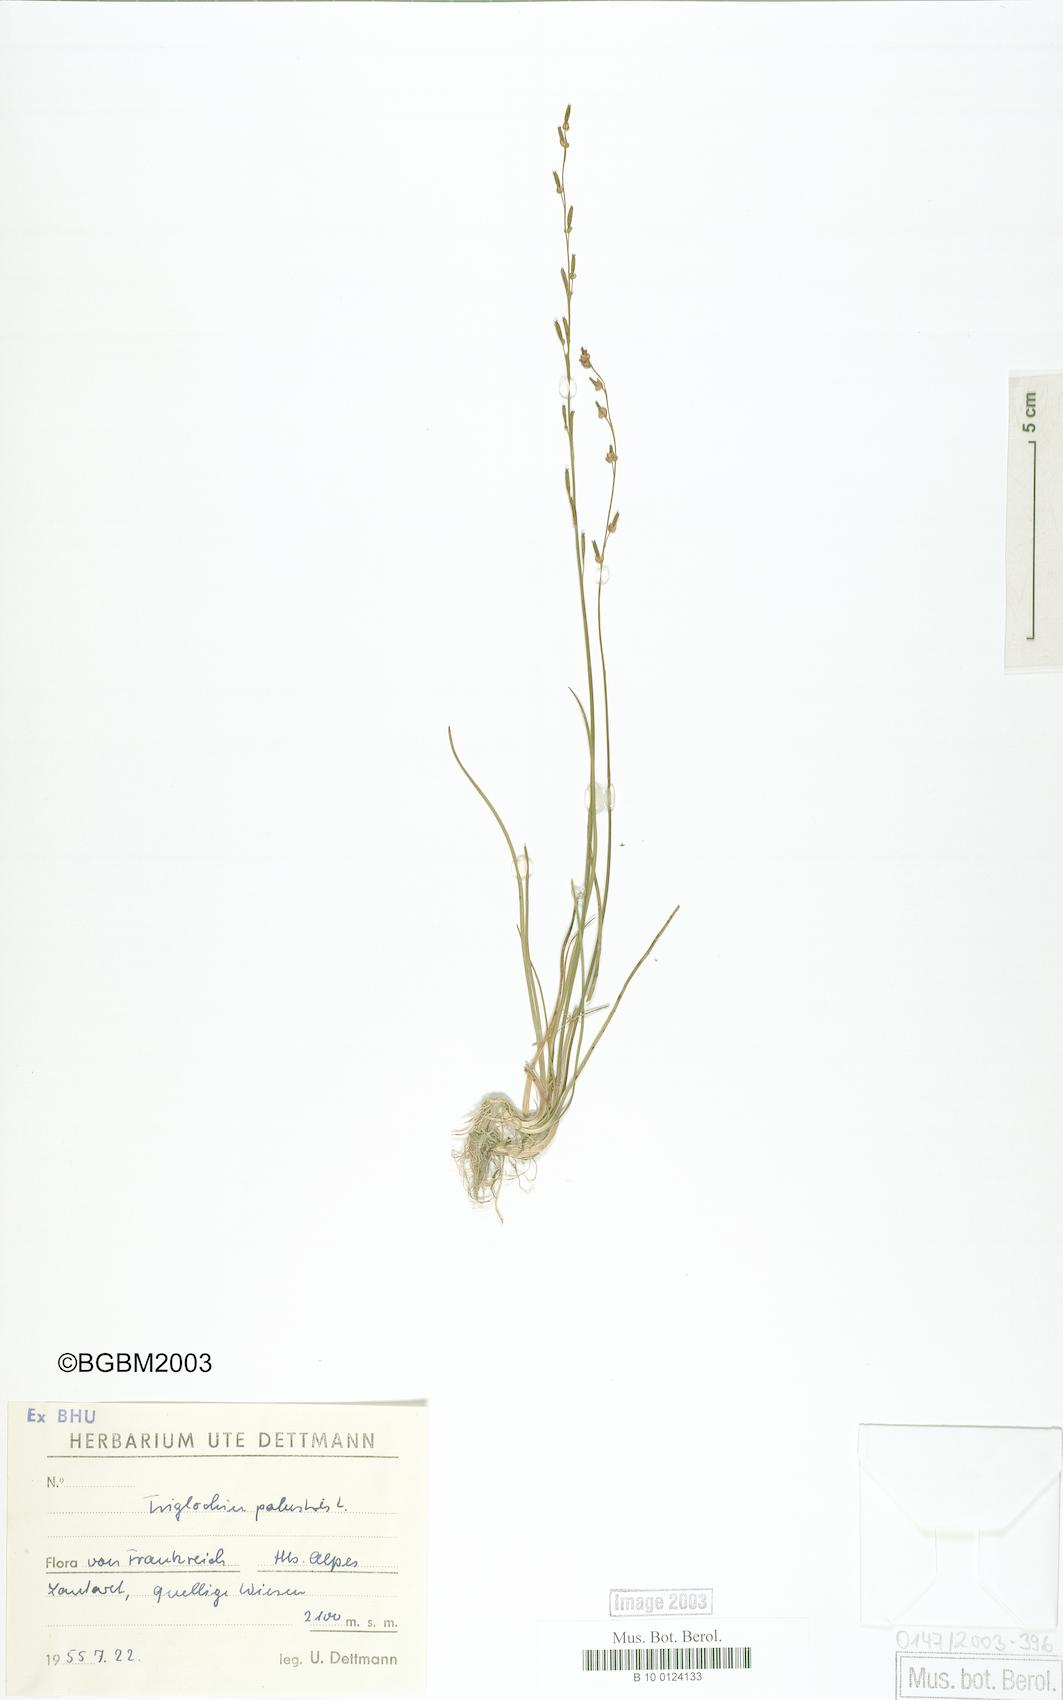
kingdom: Plantae
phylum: Tracheophyta
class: Liliopsida
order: Alismatales
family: Juncaginaceae
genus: Triglochin
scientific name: Triglochin palustris
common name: Marsh arrowgrass
